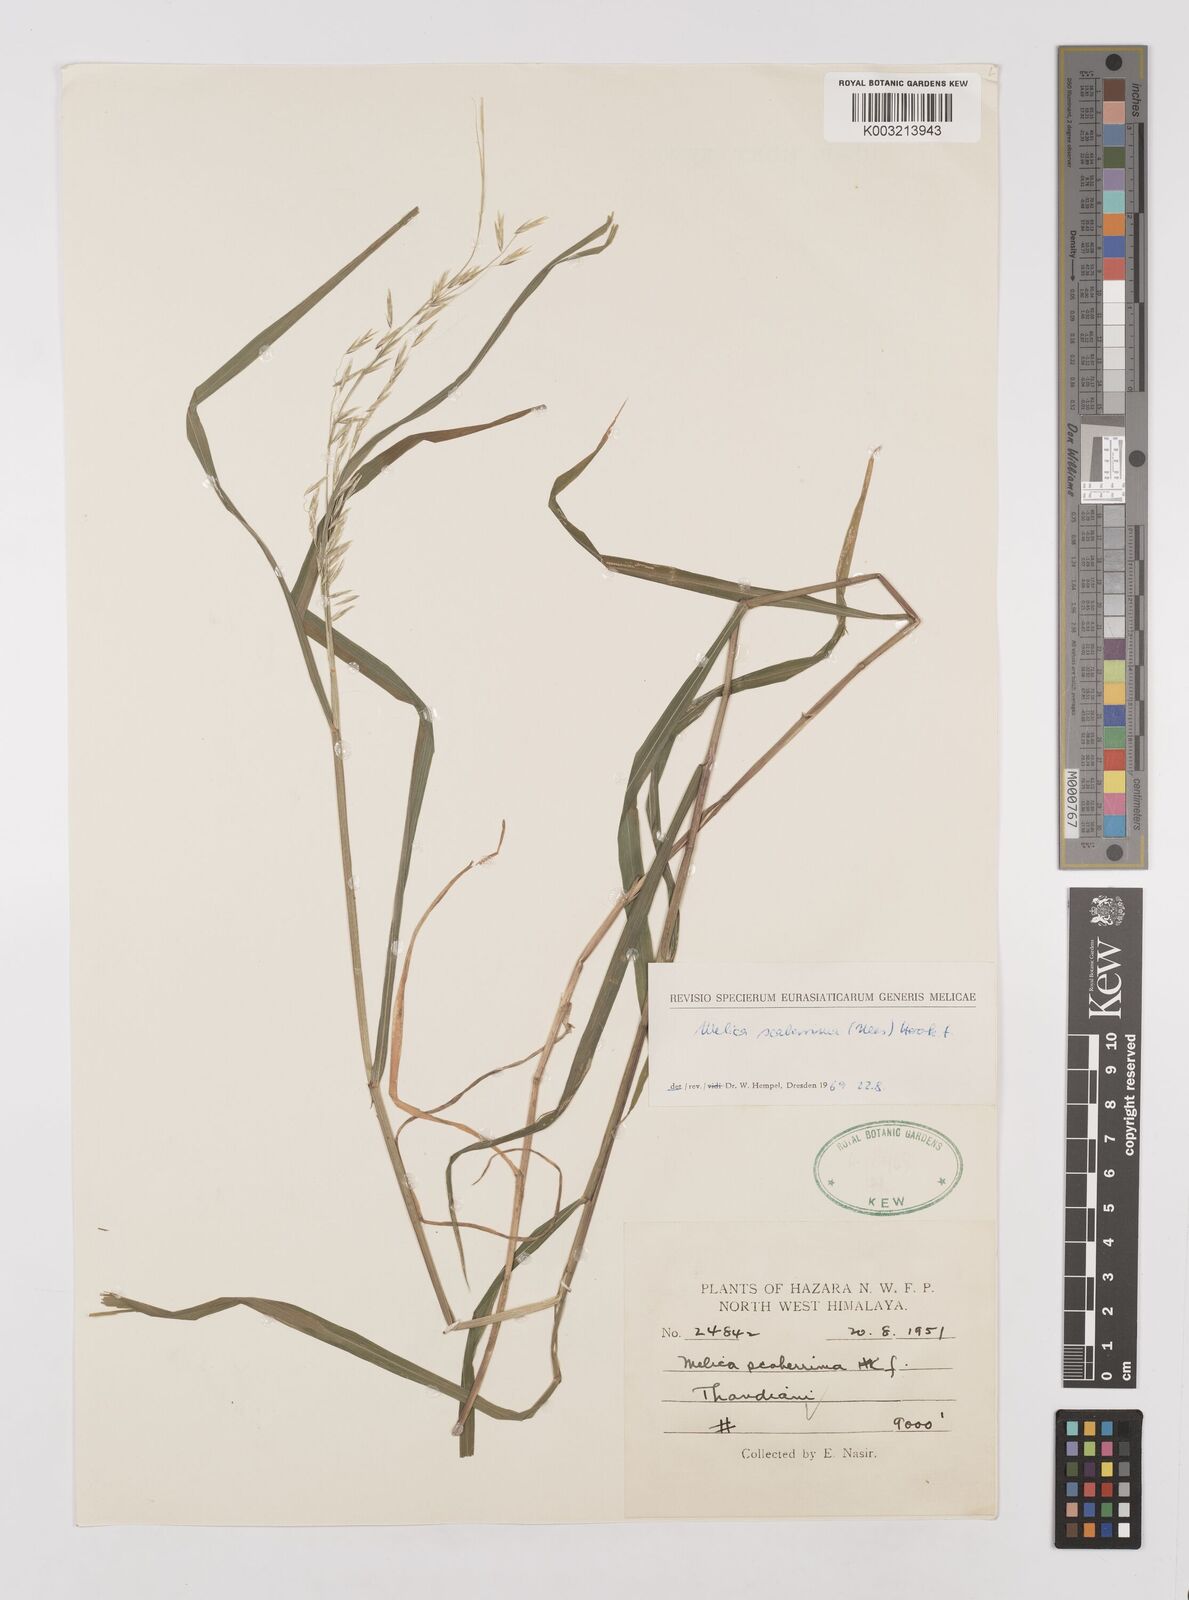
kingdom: Plantae
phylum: Tracheophyta
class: Liliopsida
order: Poales
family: Poaceae
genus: Melica
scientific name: Melica scaberrima
